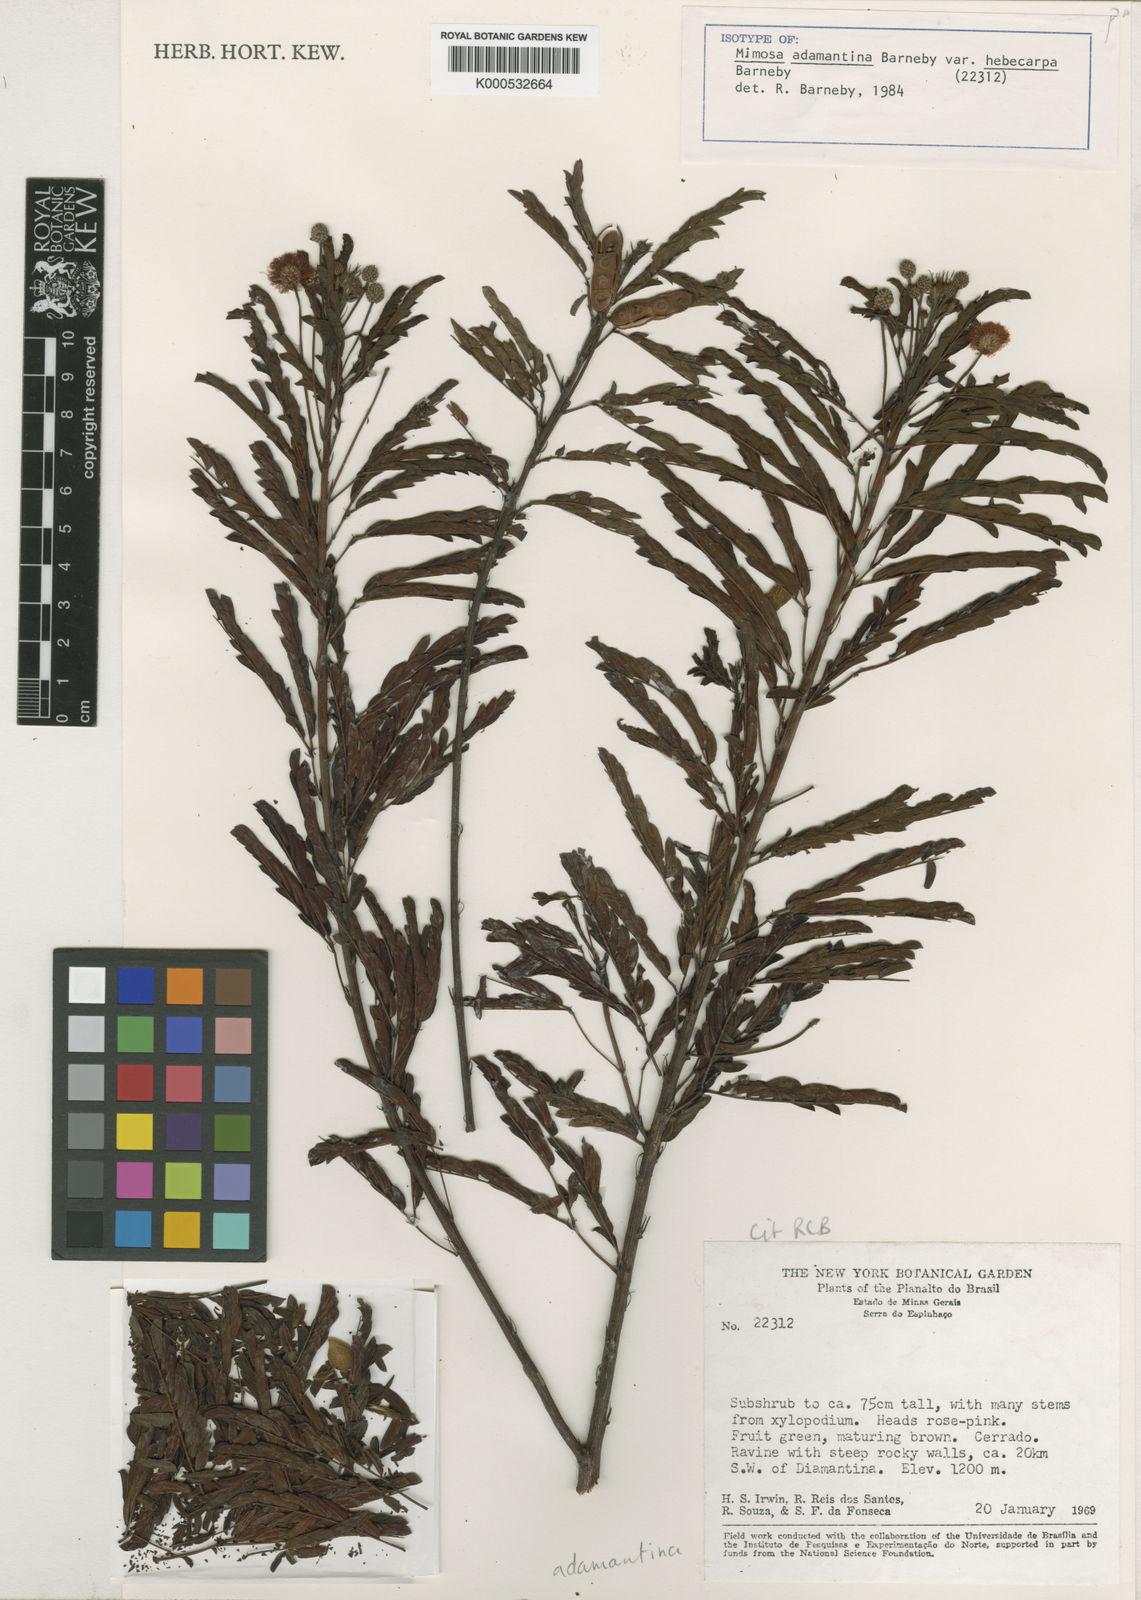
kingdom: Plantae
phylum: Tracheophyta
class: Magnoliopsida
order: Fabales
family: Fabaceae
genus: Mimosa
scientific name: Mimosa adamantina
